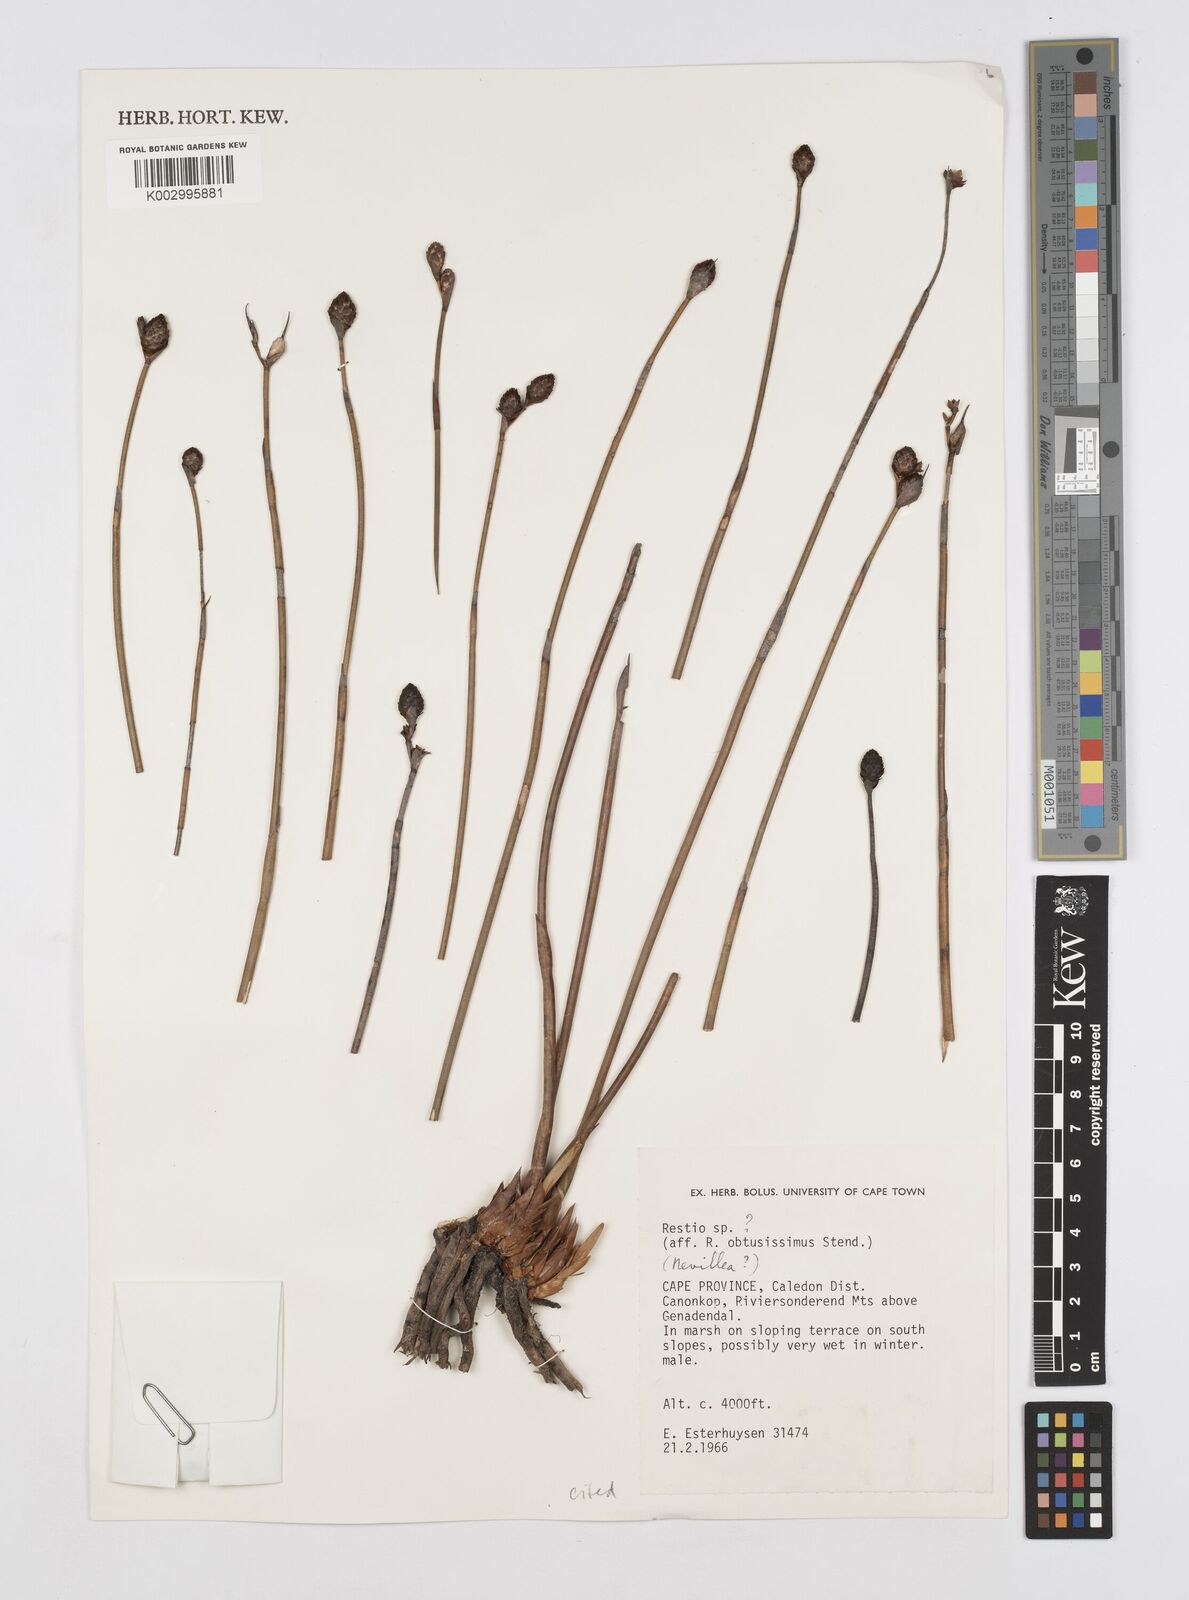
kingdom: Plantae
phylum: Tracheophyta
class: Liliopsida
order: Poales
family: Restionaceae
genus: Nevillea
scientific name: Nevillea
